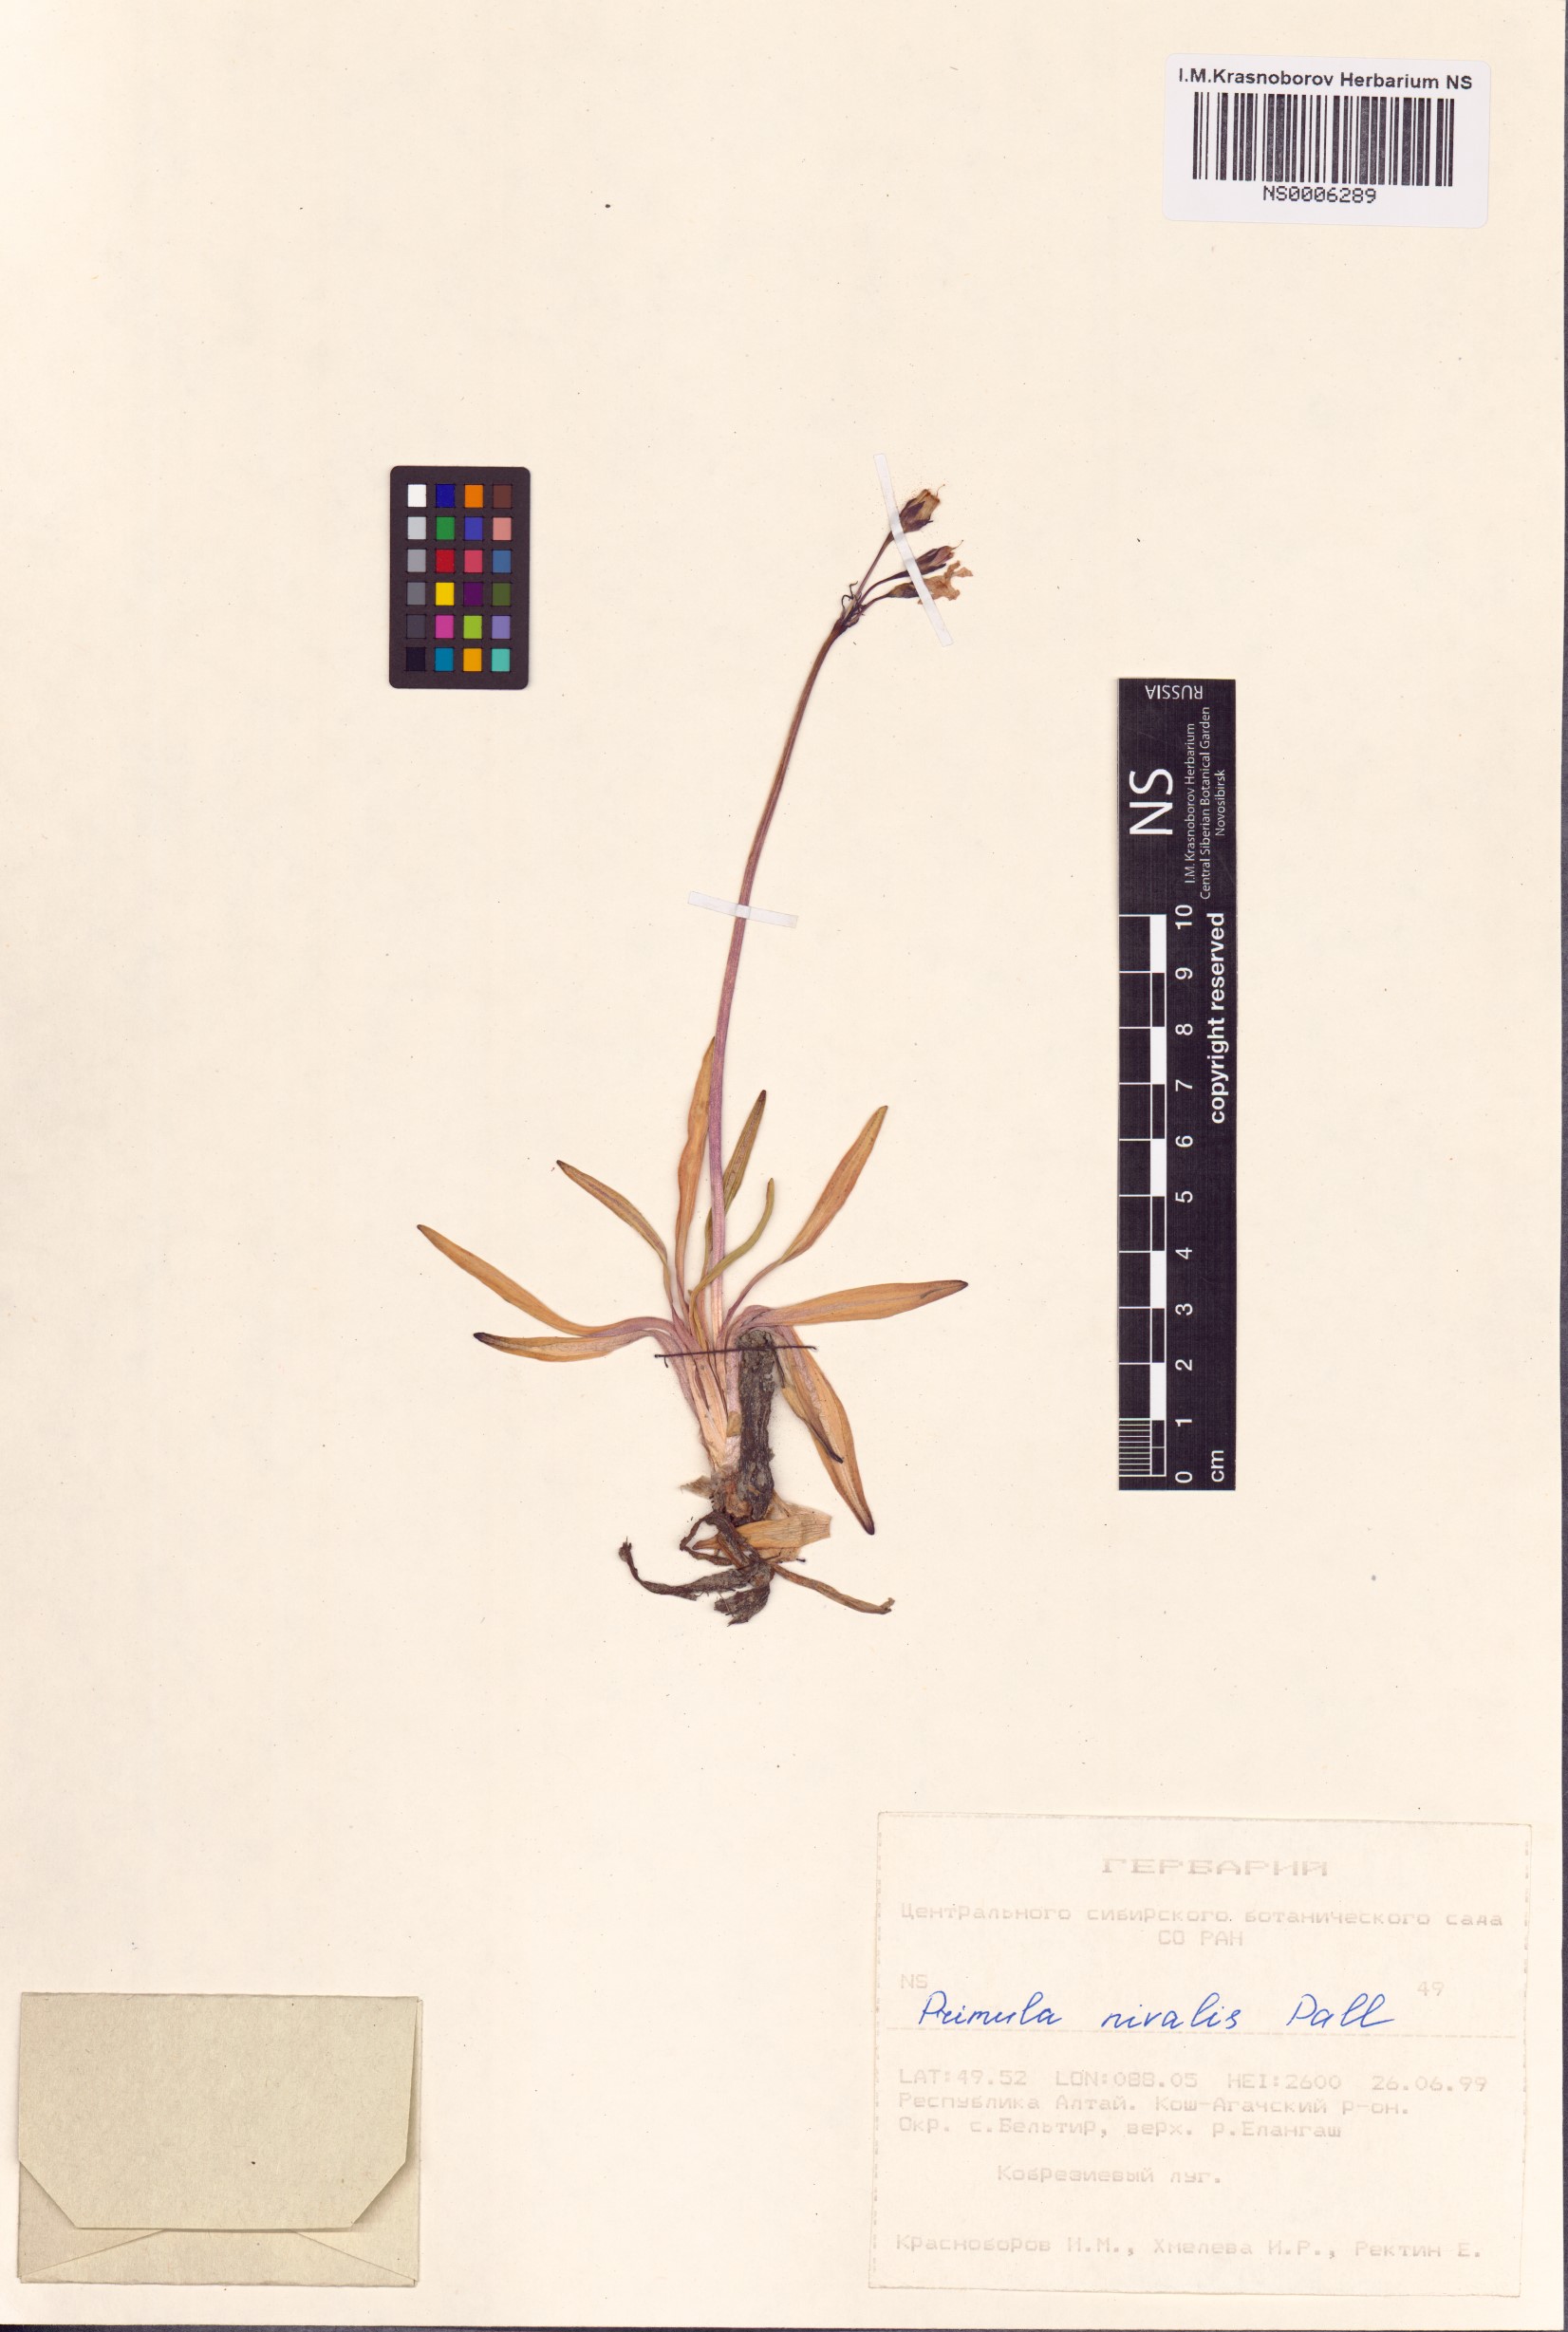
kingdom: Plantae
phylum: Tracheophyta
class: Magnoliopsida
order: Ericales
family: Primulaceae
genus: Primula
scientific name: Primula nivalis
